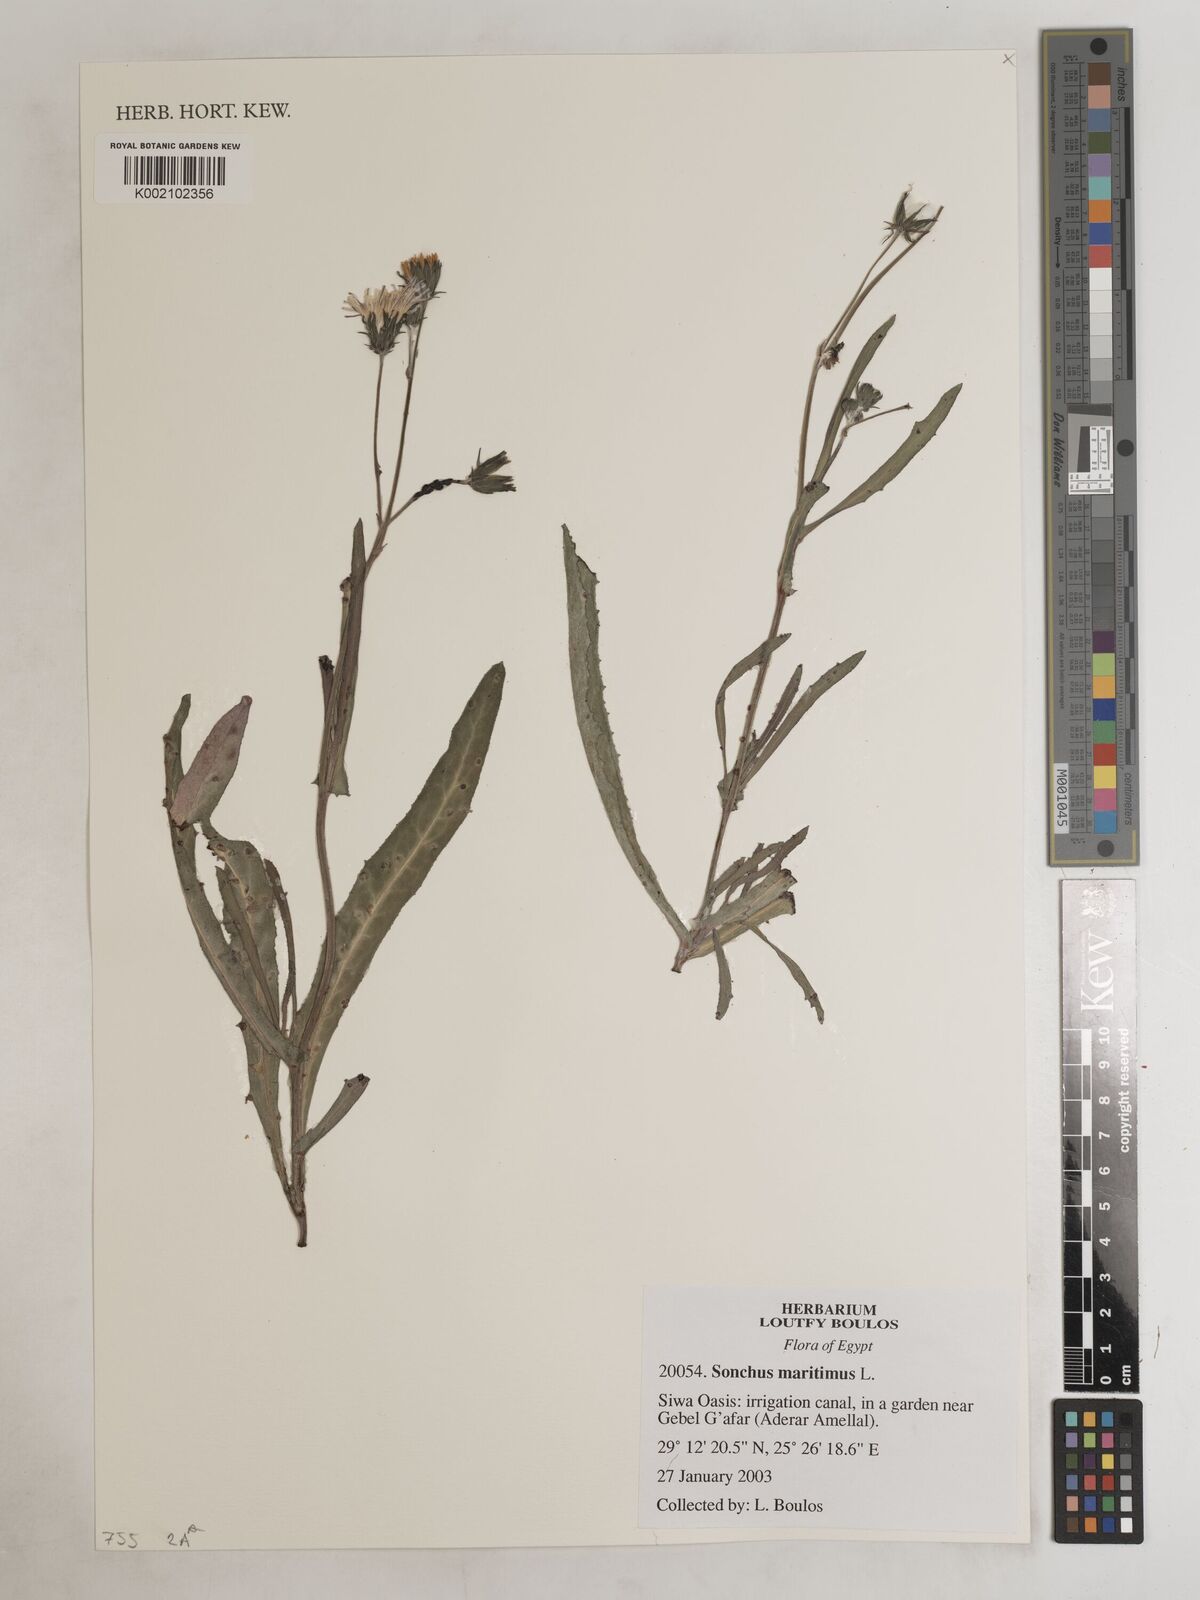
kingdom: Plantae
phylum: Tracheophyta
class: Magnoliopsida
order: Asterales
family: Asteraceae
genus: Sonchus
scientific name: Sonchus maritimus
